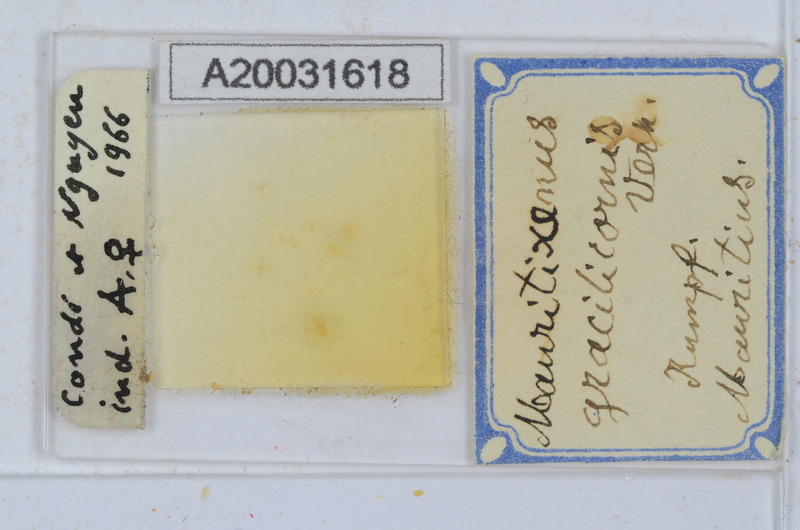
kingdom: Animalia
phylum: Arthropoda
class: Diplopoda
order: Polyxenida
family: Polyxenidae
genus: Mauritixenus
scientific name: Mauritixenus gracilicornis
